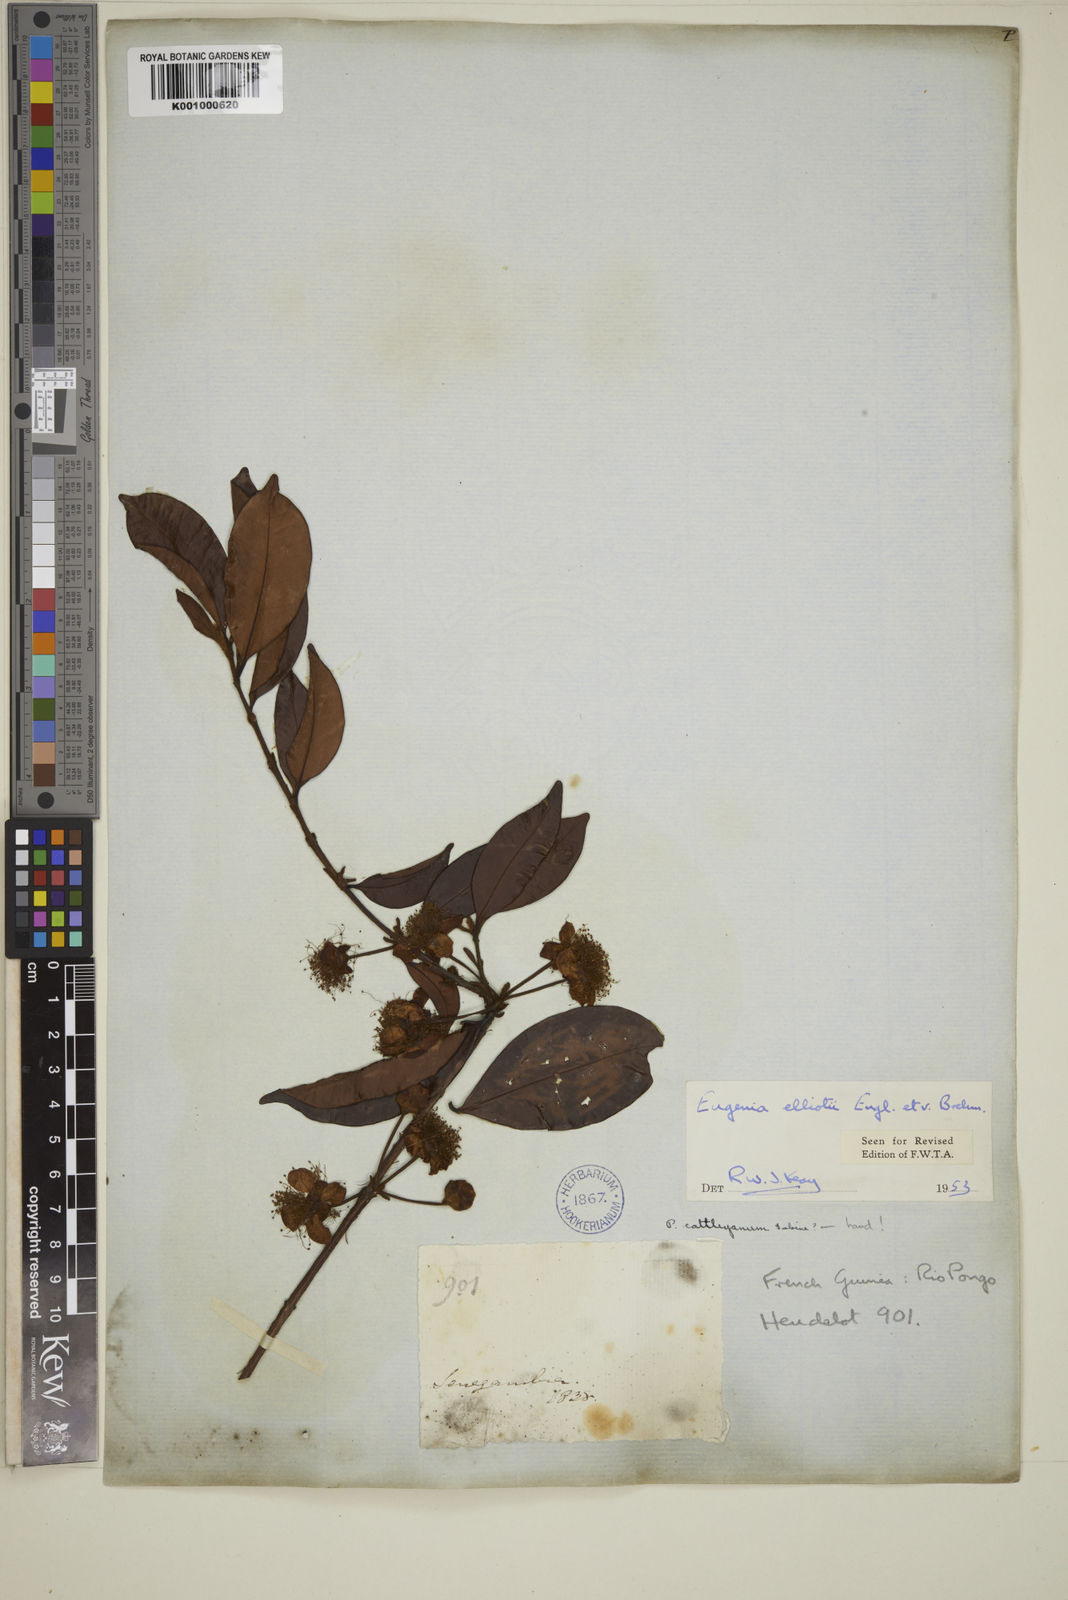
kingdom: Plantae
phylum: Tracheophyta
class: Magnoliopsida
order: Myrtales
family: Myrtaceae
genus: Eugenia
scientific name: Eugenia elliotii
